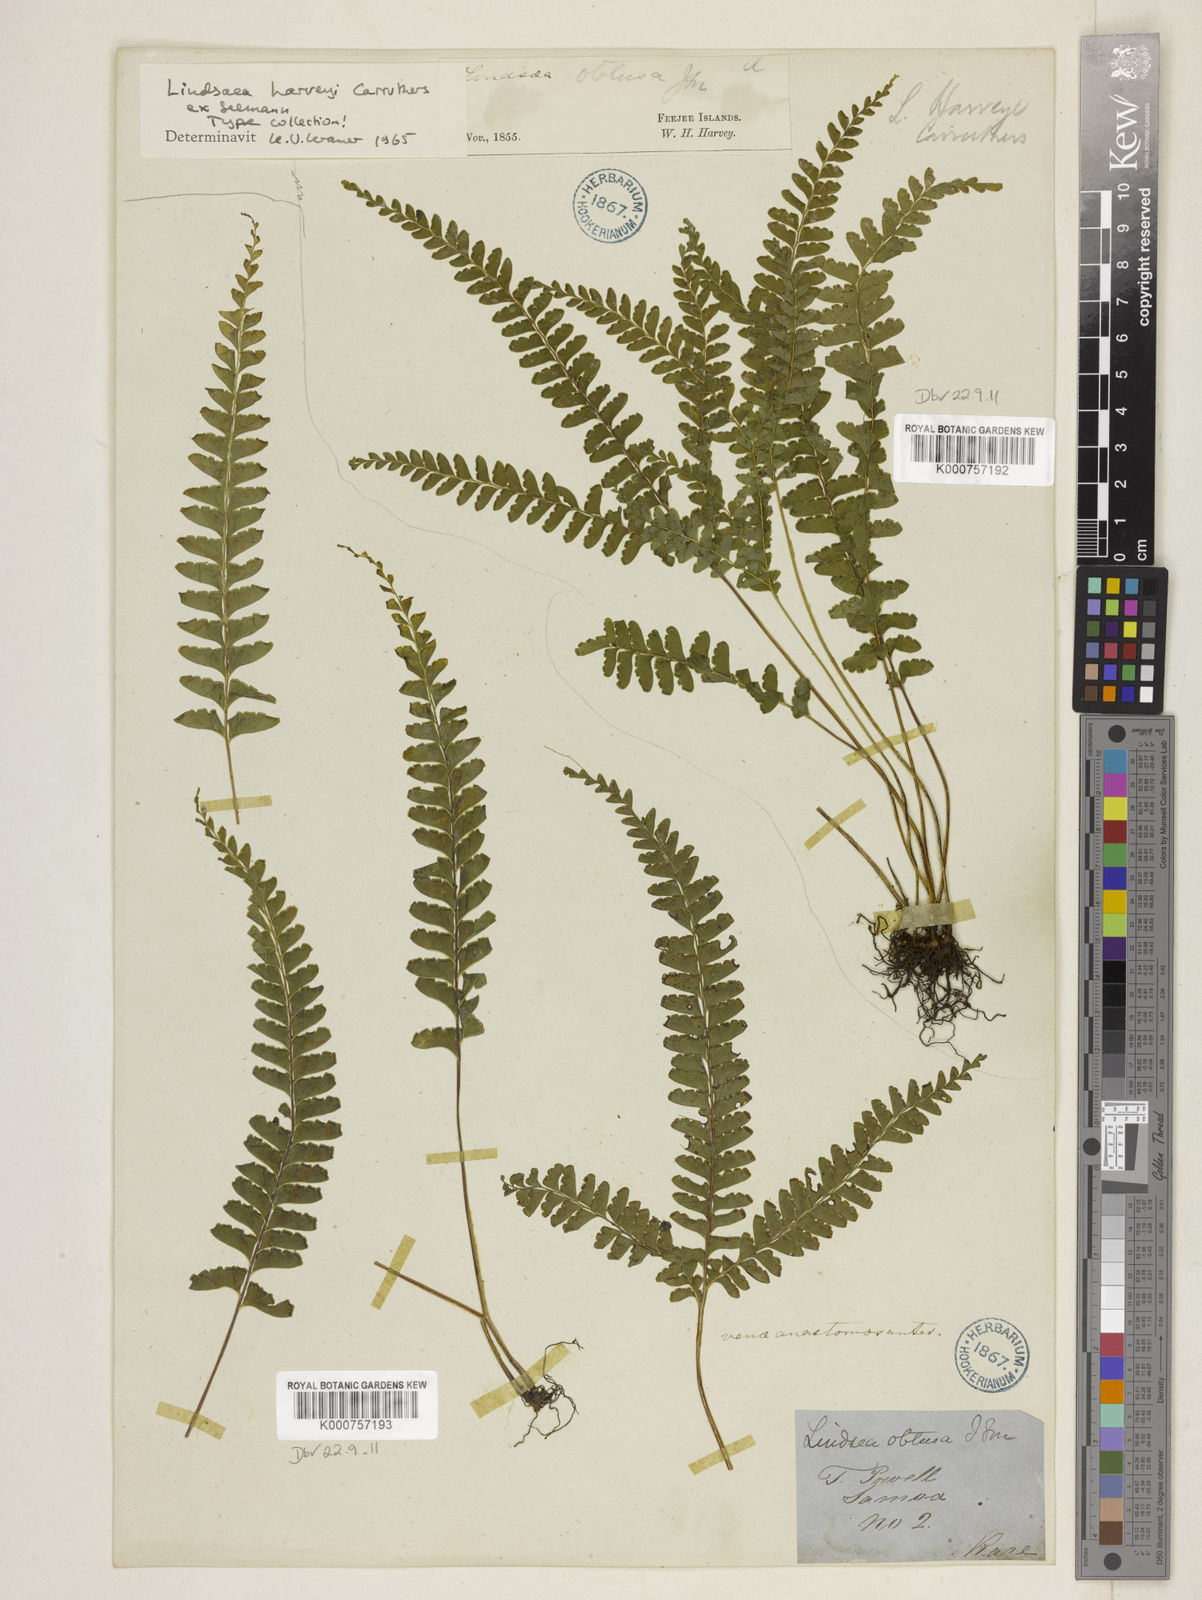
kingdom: Plantae
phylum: Tracheophyta
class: Polypodiopsida
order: Polypodiales
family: Lindsaeaceae
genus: Lindsaea
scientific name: Lindsaea
